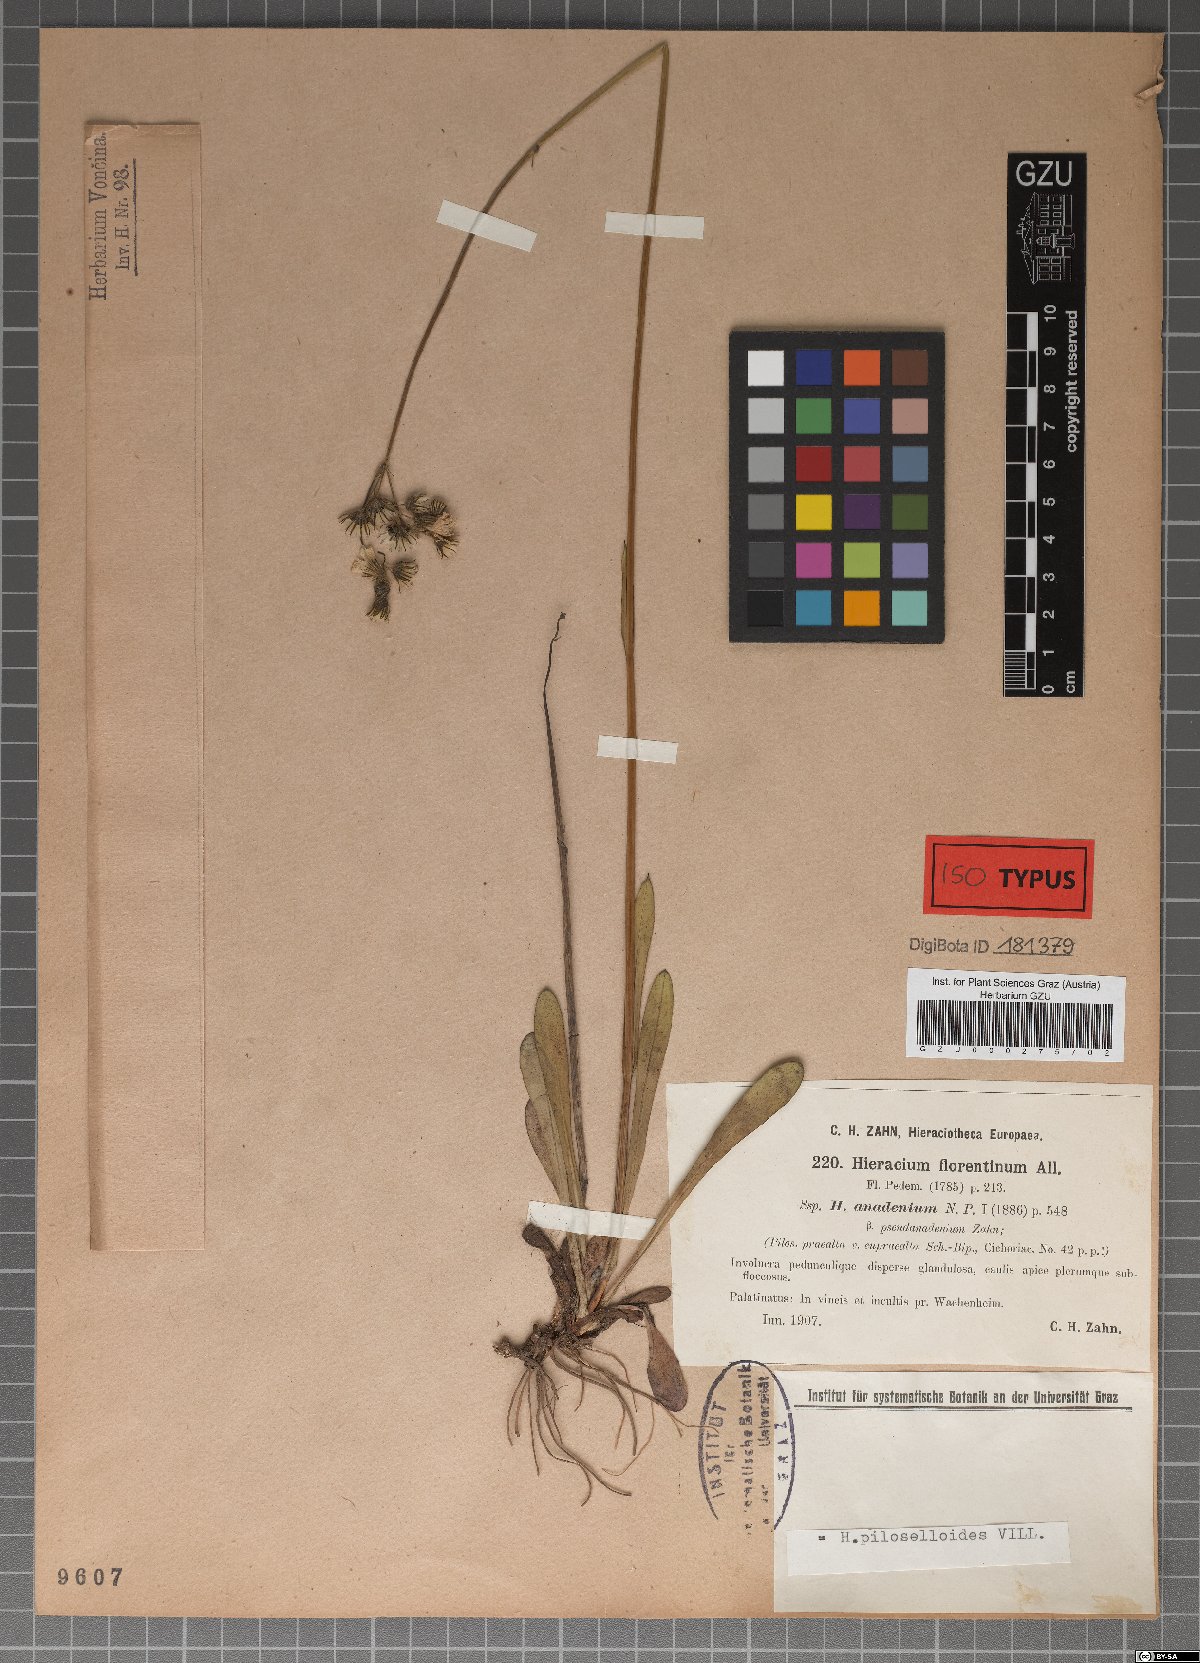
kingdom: Plantae
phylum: Tracheophyta
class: Magnoliopsida
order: Asterales
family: Asteraceae
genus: Hieracium
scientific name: Hieracium florentinum
